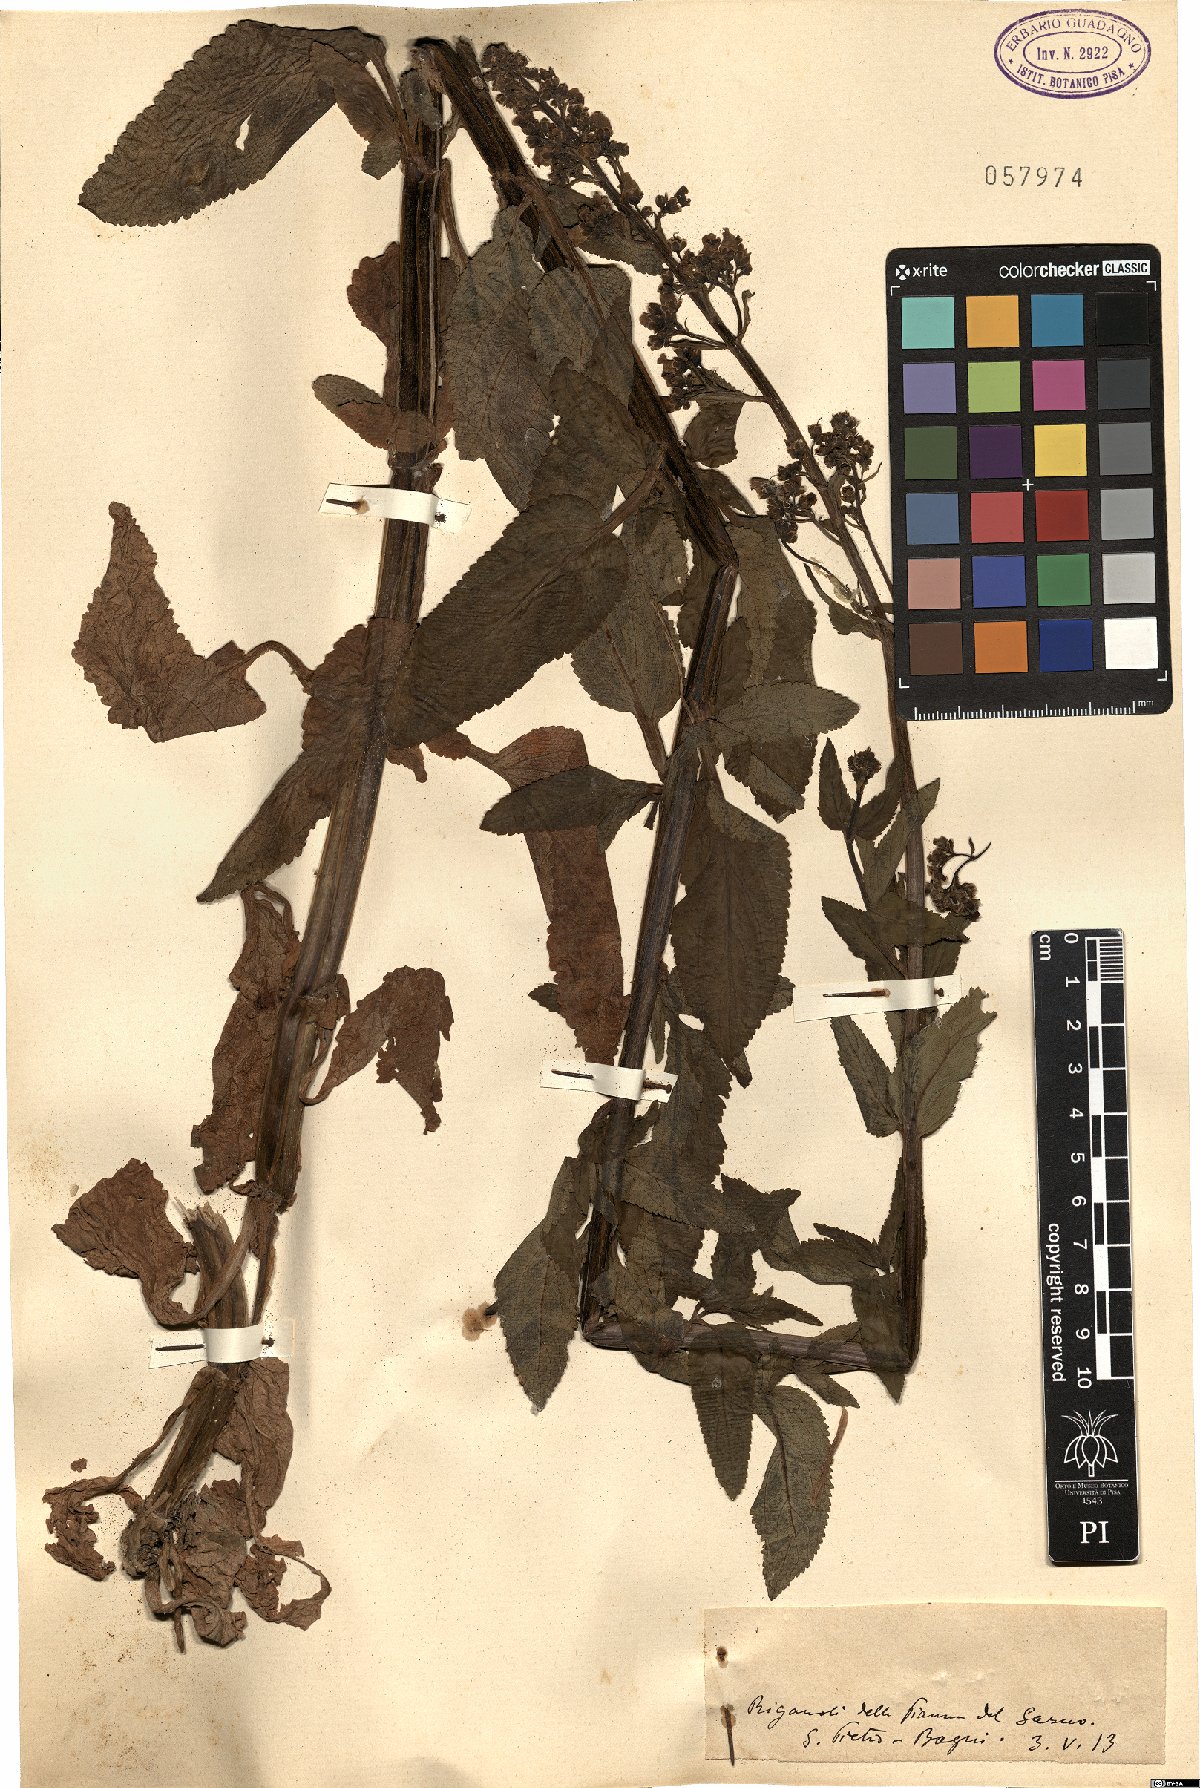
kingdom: Plantae
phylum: Tracheophyta
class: Magnoliopsida
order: Lamiales
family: Scrophulariaceae
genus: Scrophularia
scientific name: Scrophularia
